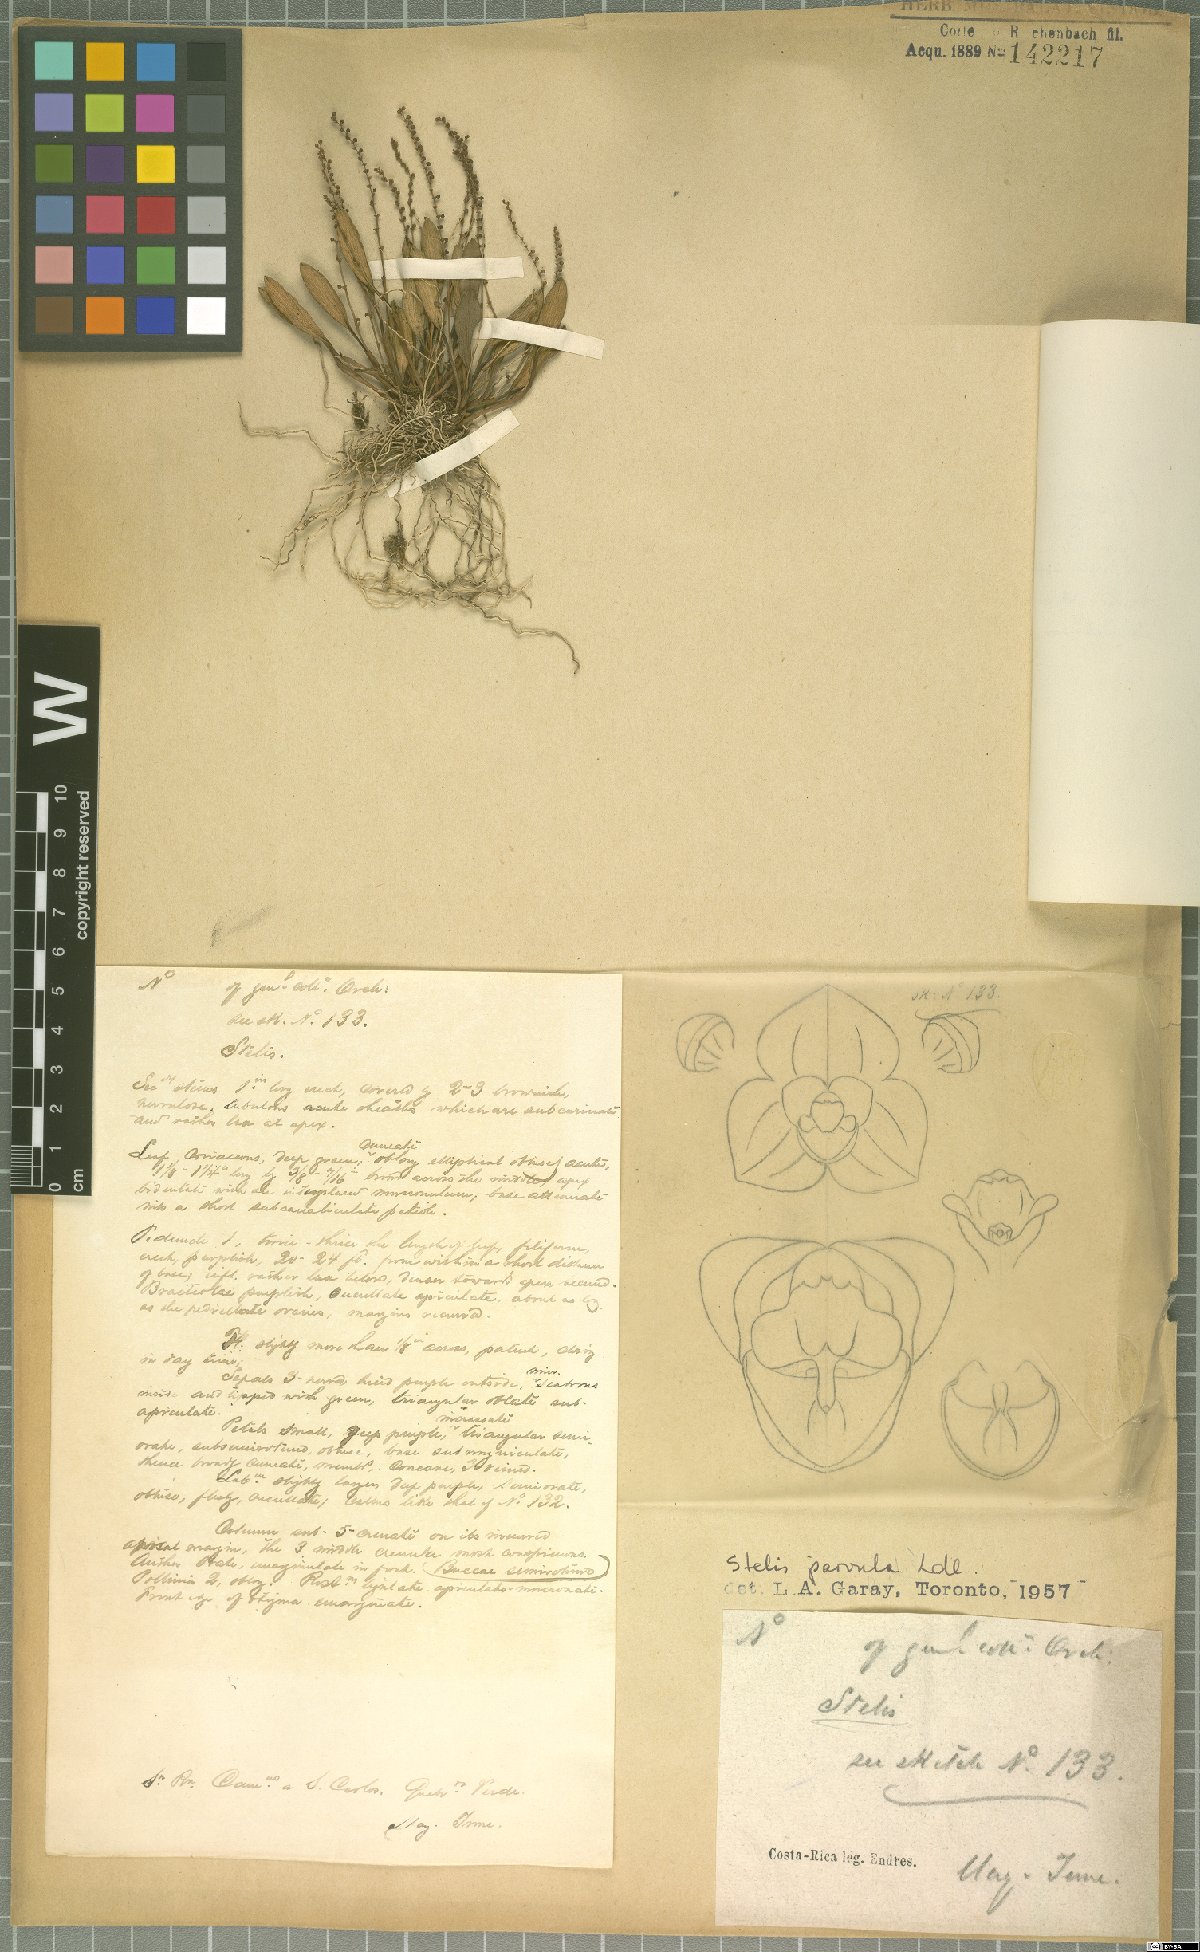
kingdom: Plantae
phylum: Tracheophyta
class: Liliopsida
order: Asparagales
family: Orchidaceae
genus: Stelis
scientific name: Stelis parvula
